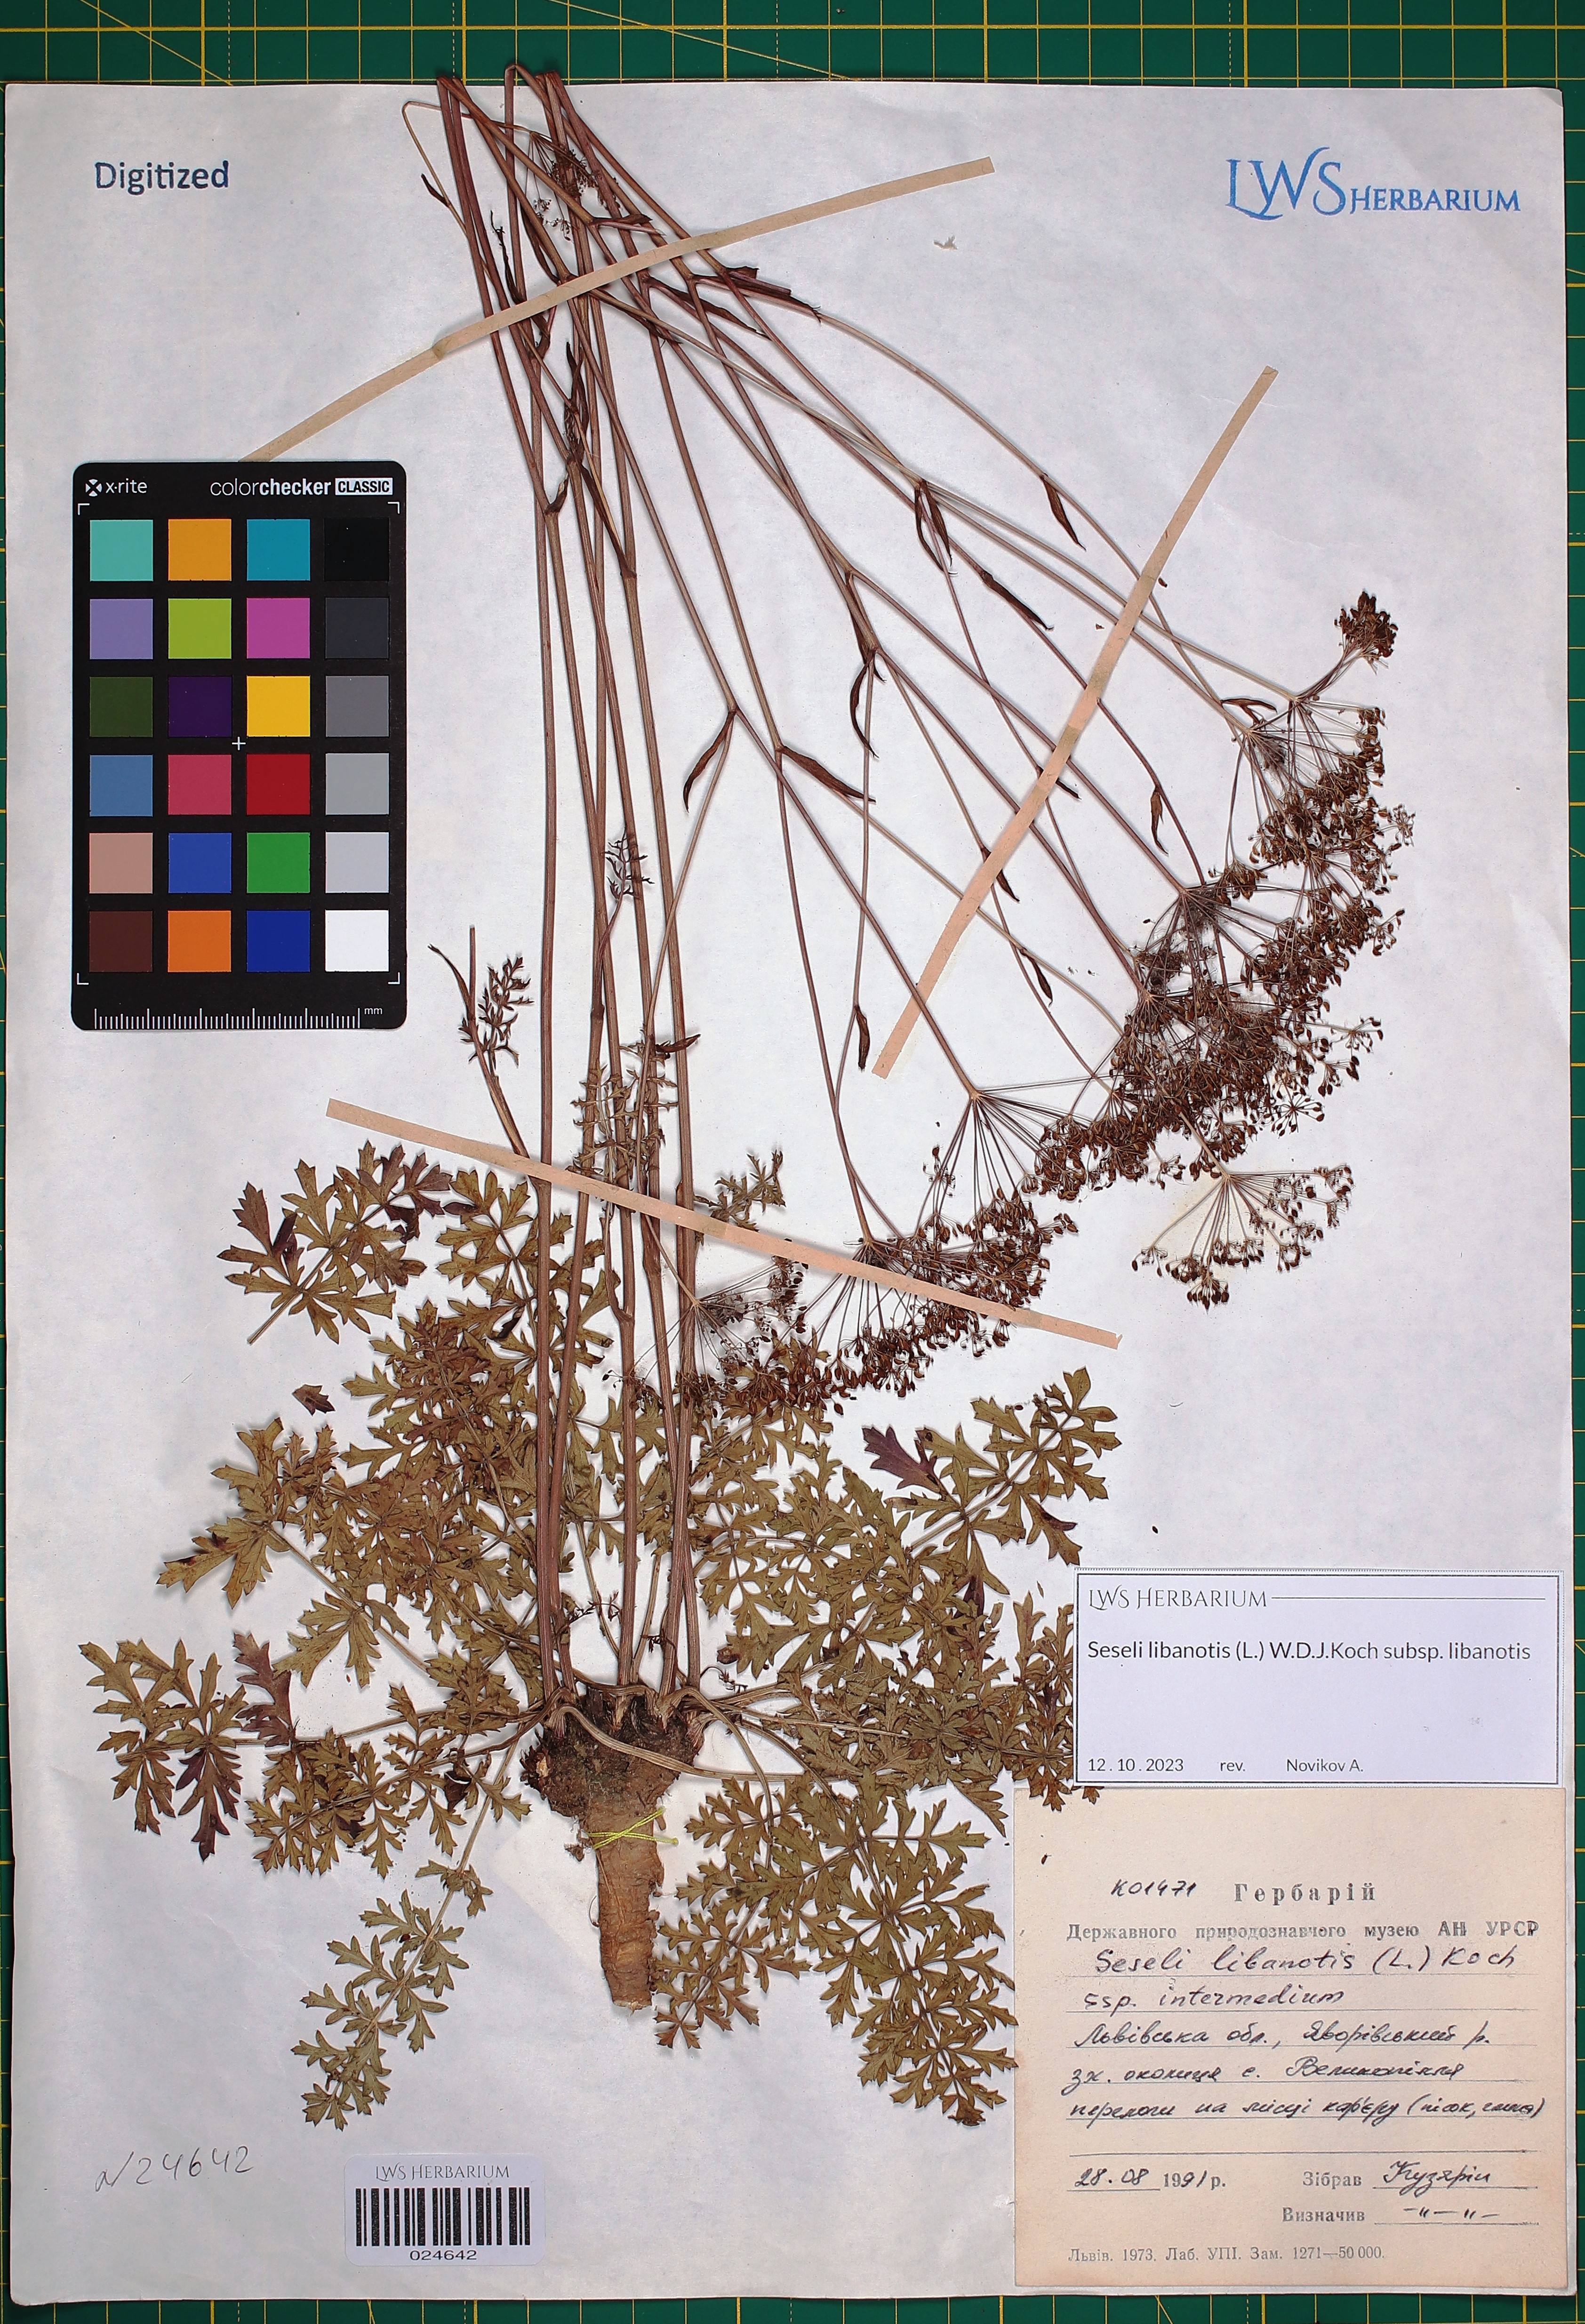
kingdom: Plantae
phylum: Tracheophyta
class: Magnoliopsida
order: Apiales
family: Apiaceae
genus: Seseli
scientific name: Seseli libanotis
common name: Mooncarrot
